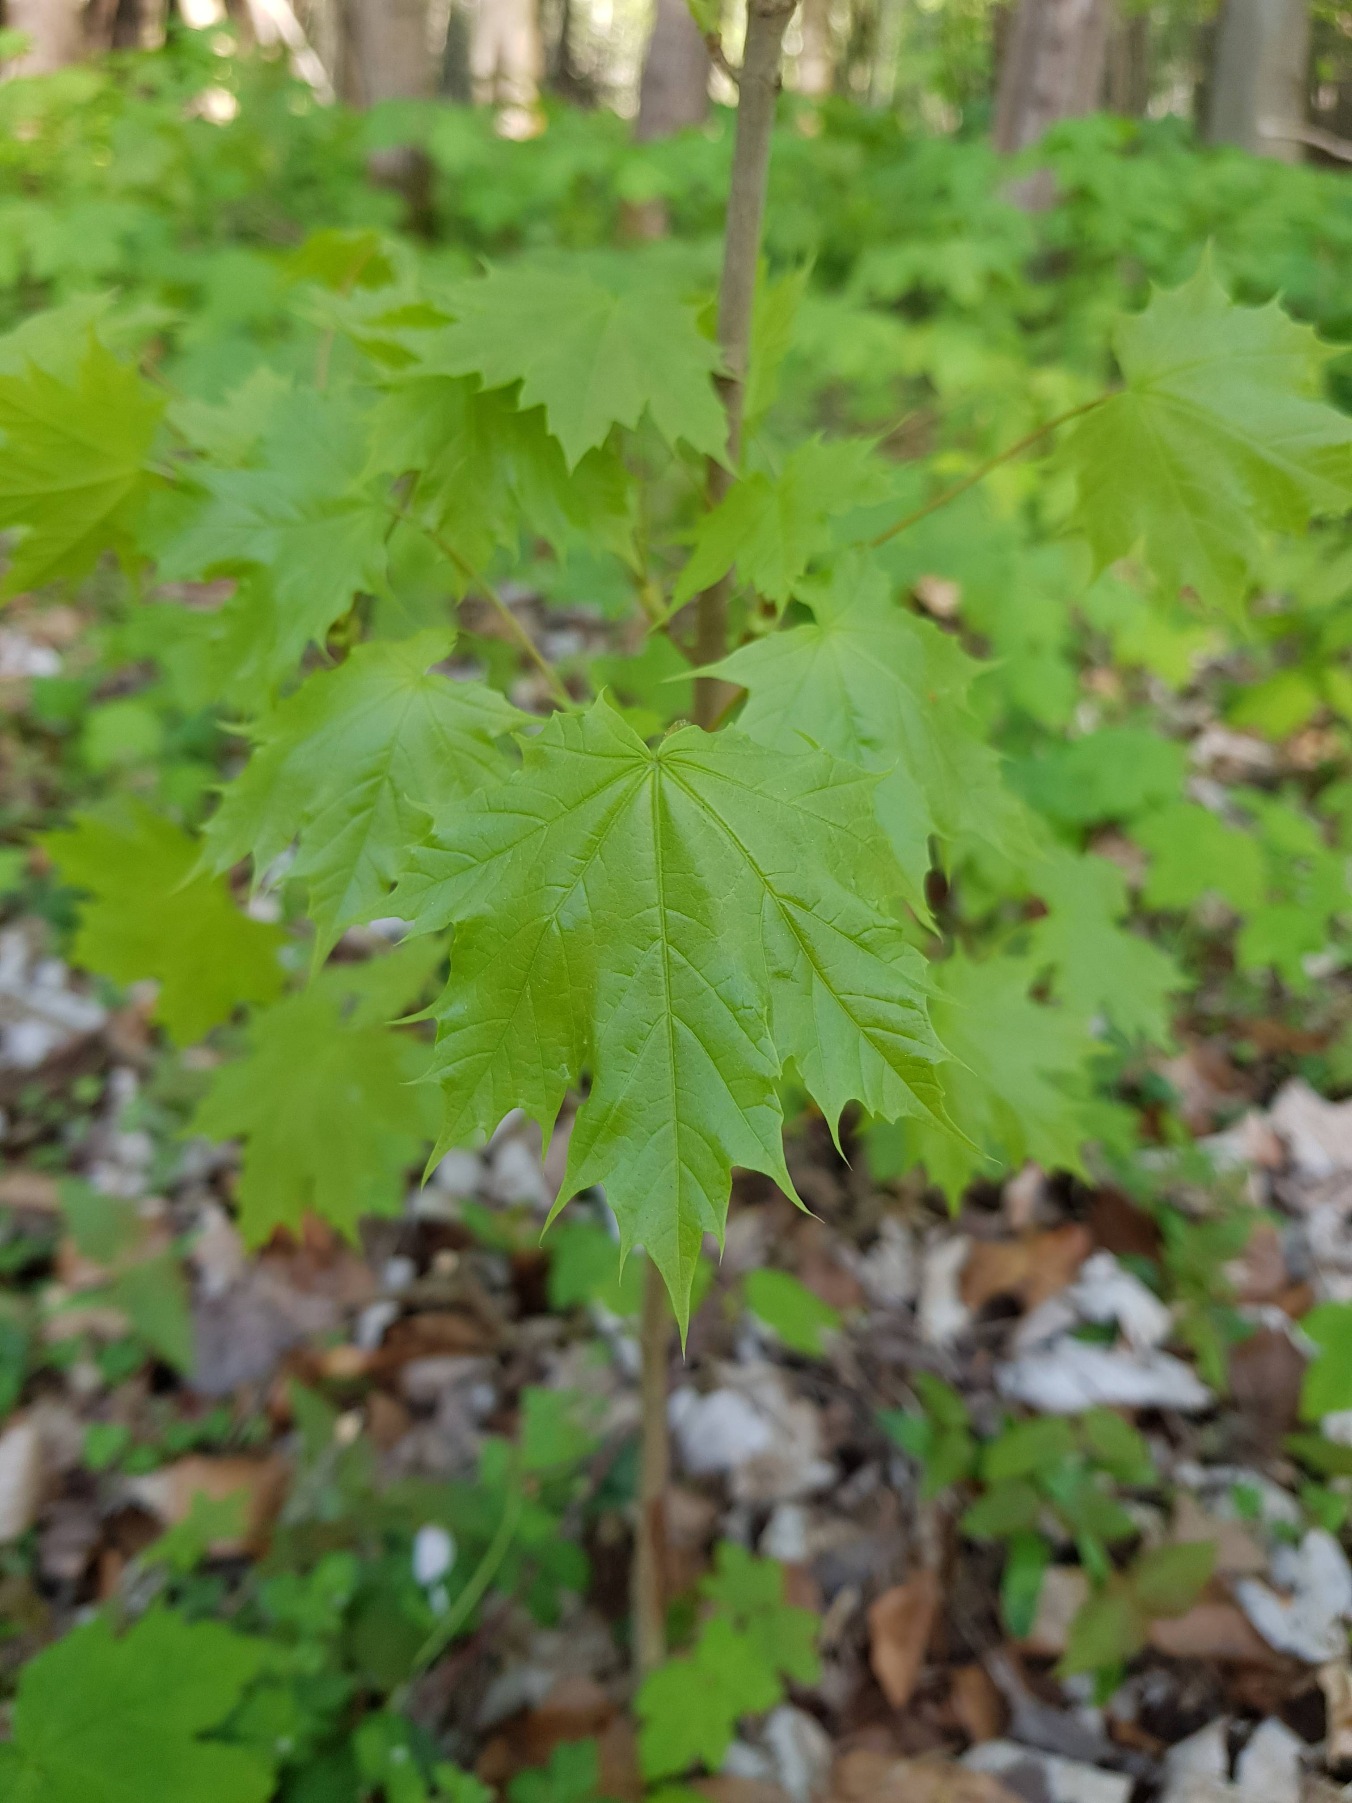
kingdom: Plantae
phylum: Tracheophyta
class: Magnoliopsida
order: Sapindales
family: Sapindaceae
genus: Acer
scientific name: Acer platanoides
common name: Spids-løn
